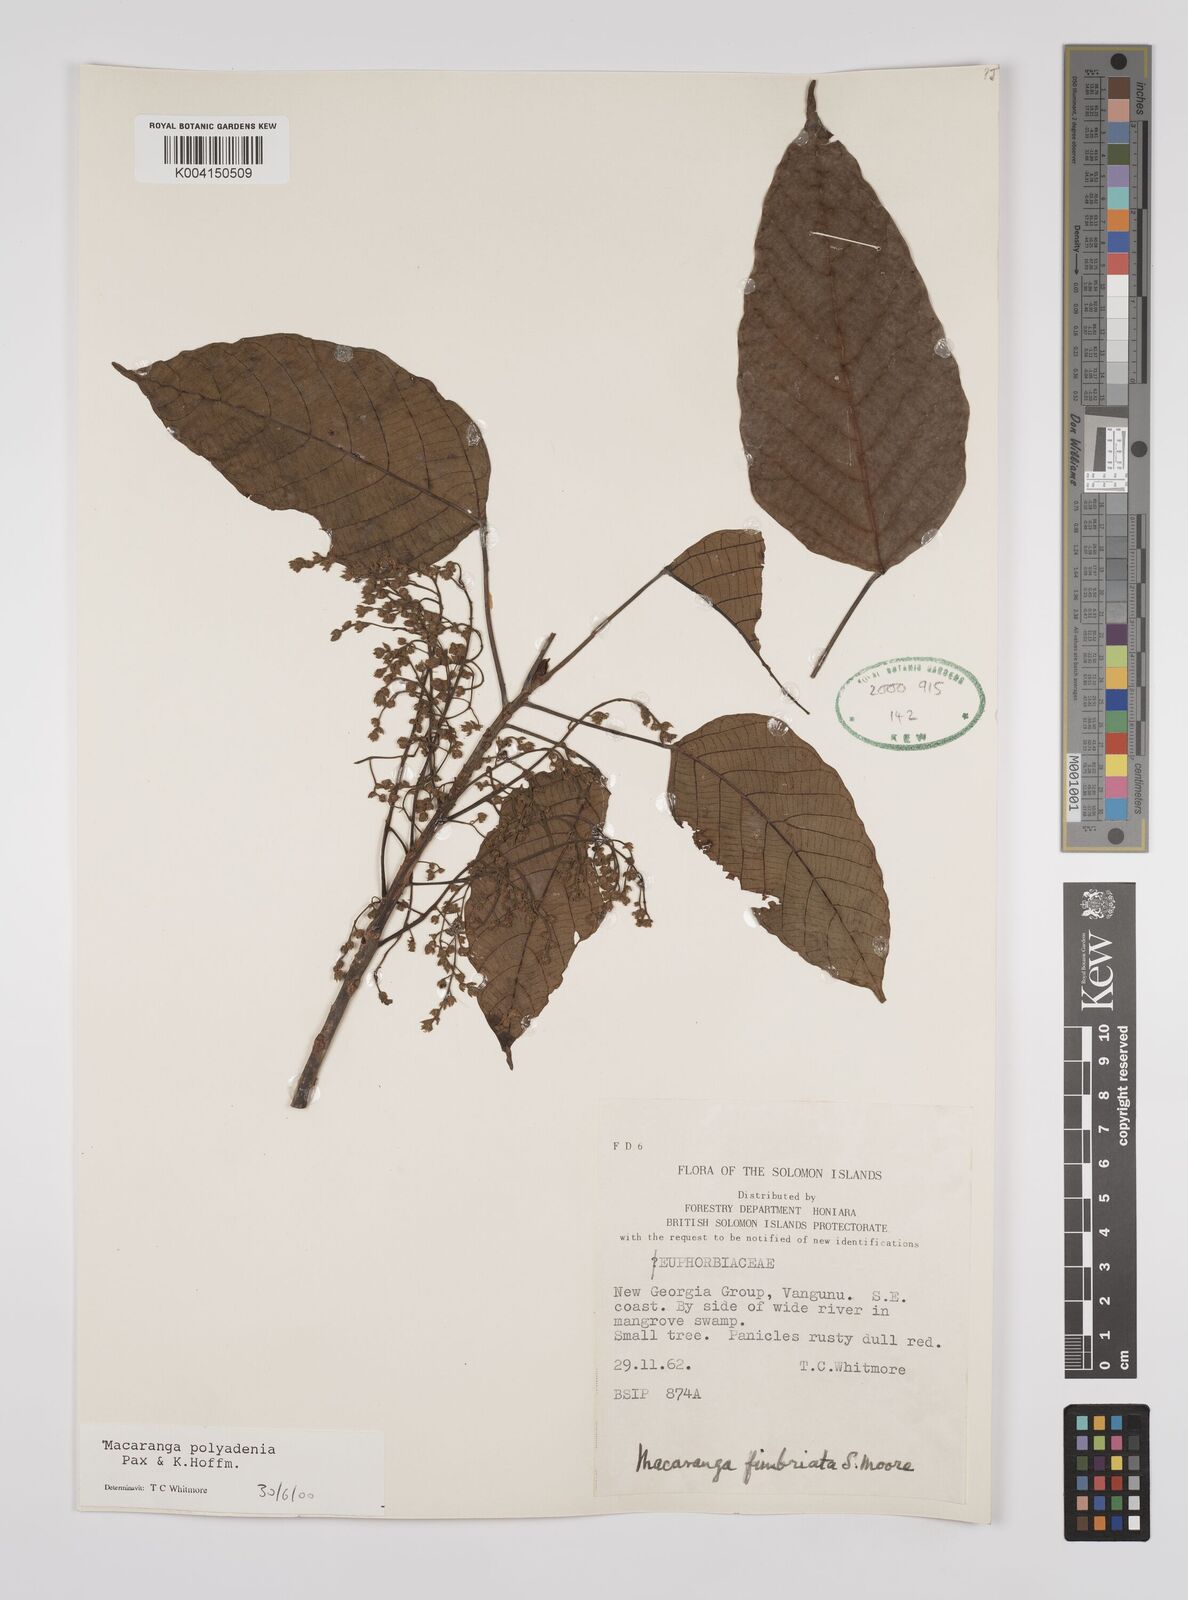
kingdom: Plantae
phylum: Tracheophyta
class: Magnoliopsida
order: Malpighiales
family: Euphorbiaceae
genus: Macaranga
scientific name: Macaranga polyadenia
